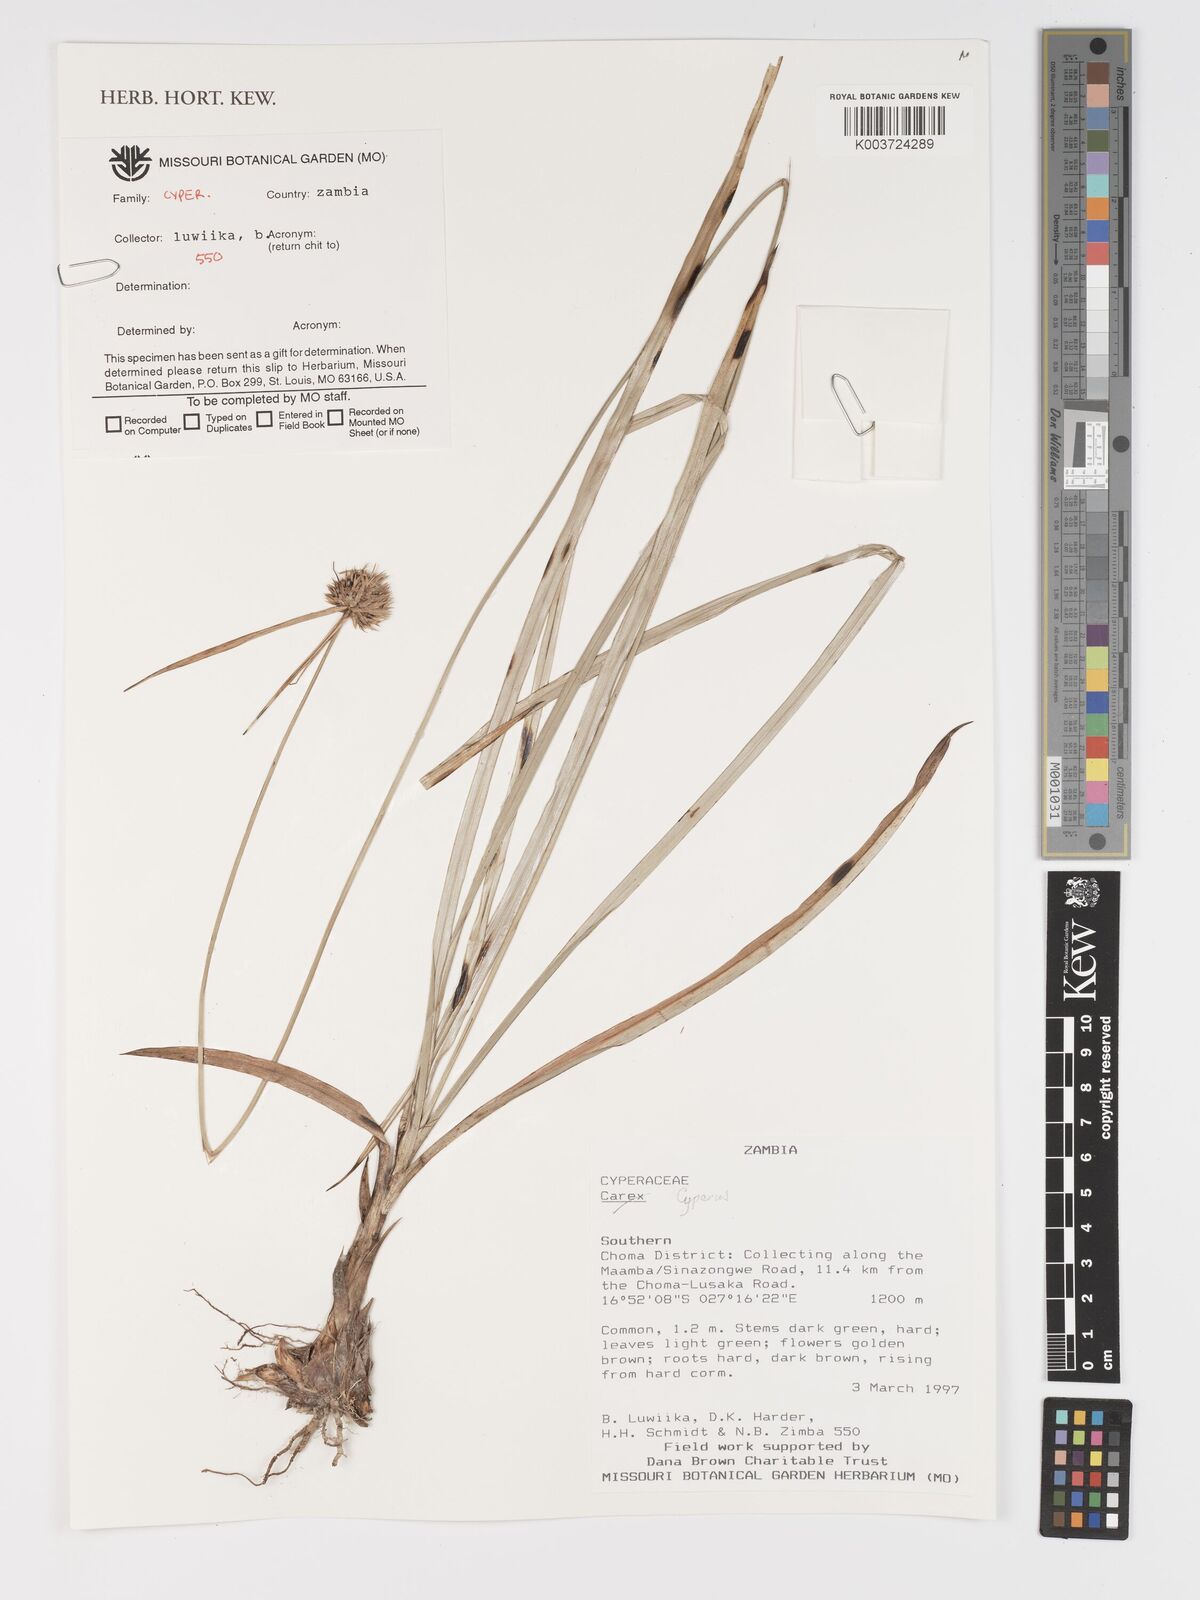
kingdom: Plantae
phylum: Tracheophyta
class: Liliopsida
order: Poales
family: Cyperaceae
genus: Cyperus
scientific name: Cyperus
